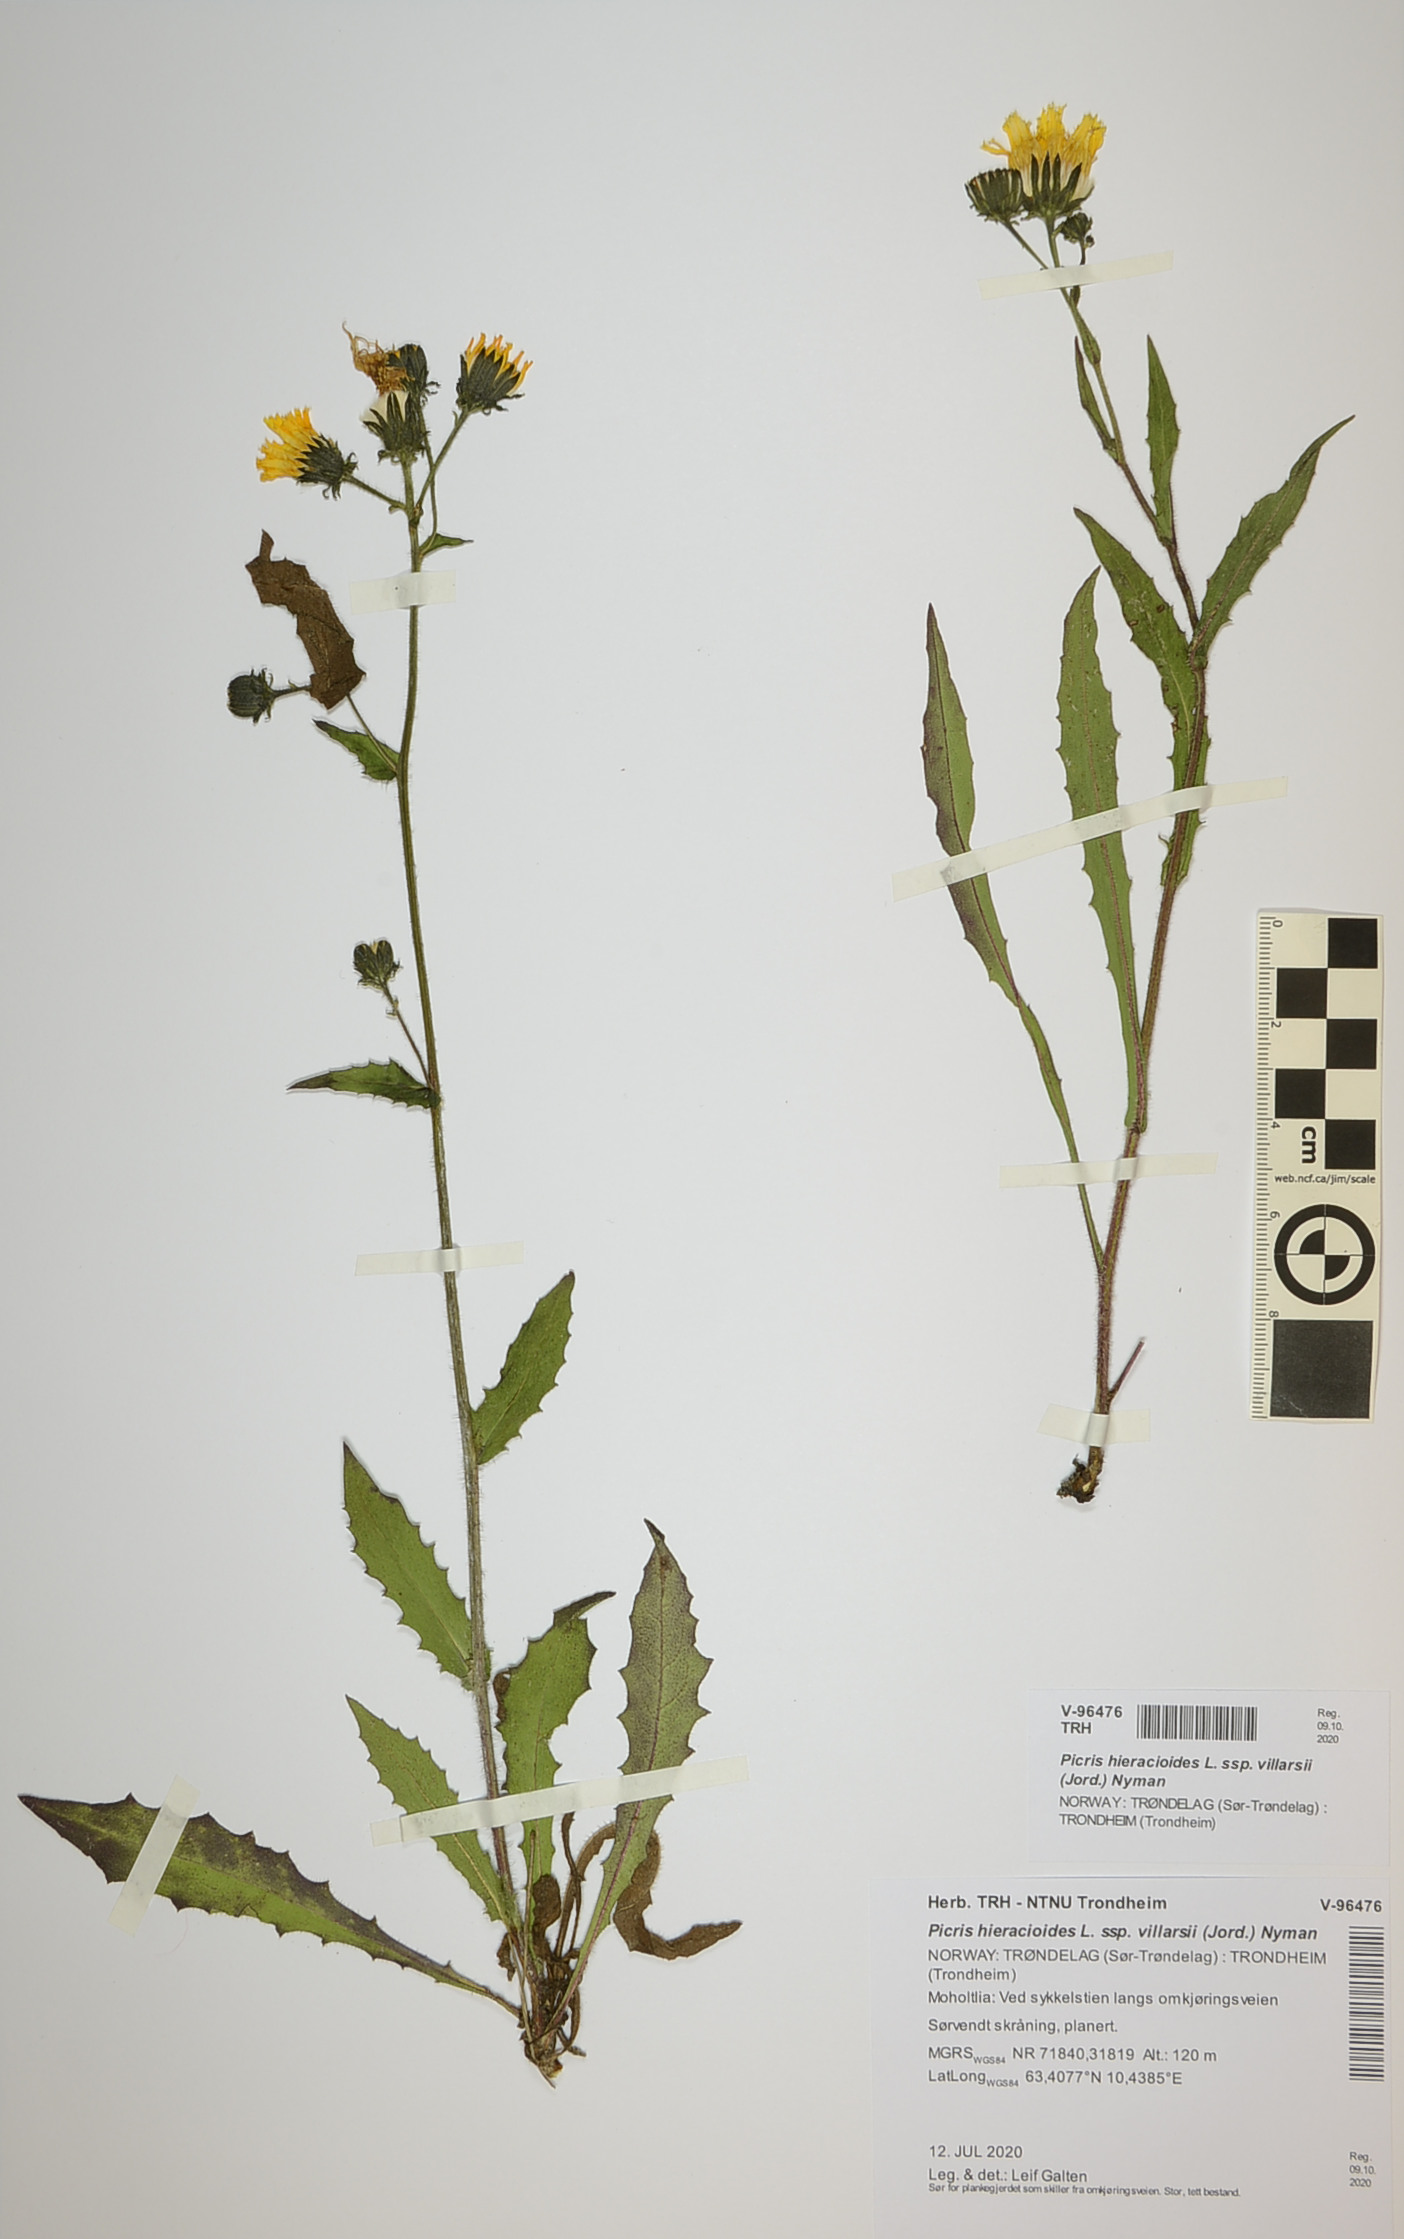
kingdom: Plantae
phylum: Tracheophyta
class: Magnoliopsida
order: Asterales
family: Asteraceae
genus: Picris
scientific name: Picris hieracioides
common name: Hawkweed oxtongue
